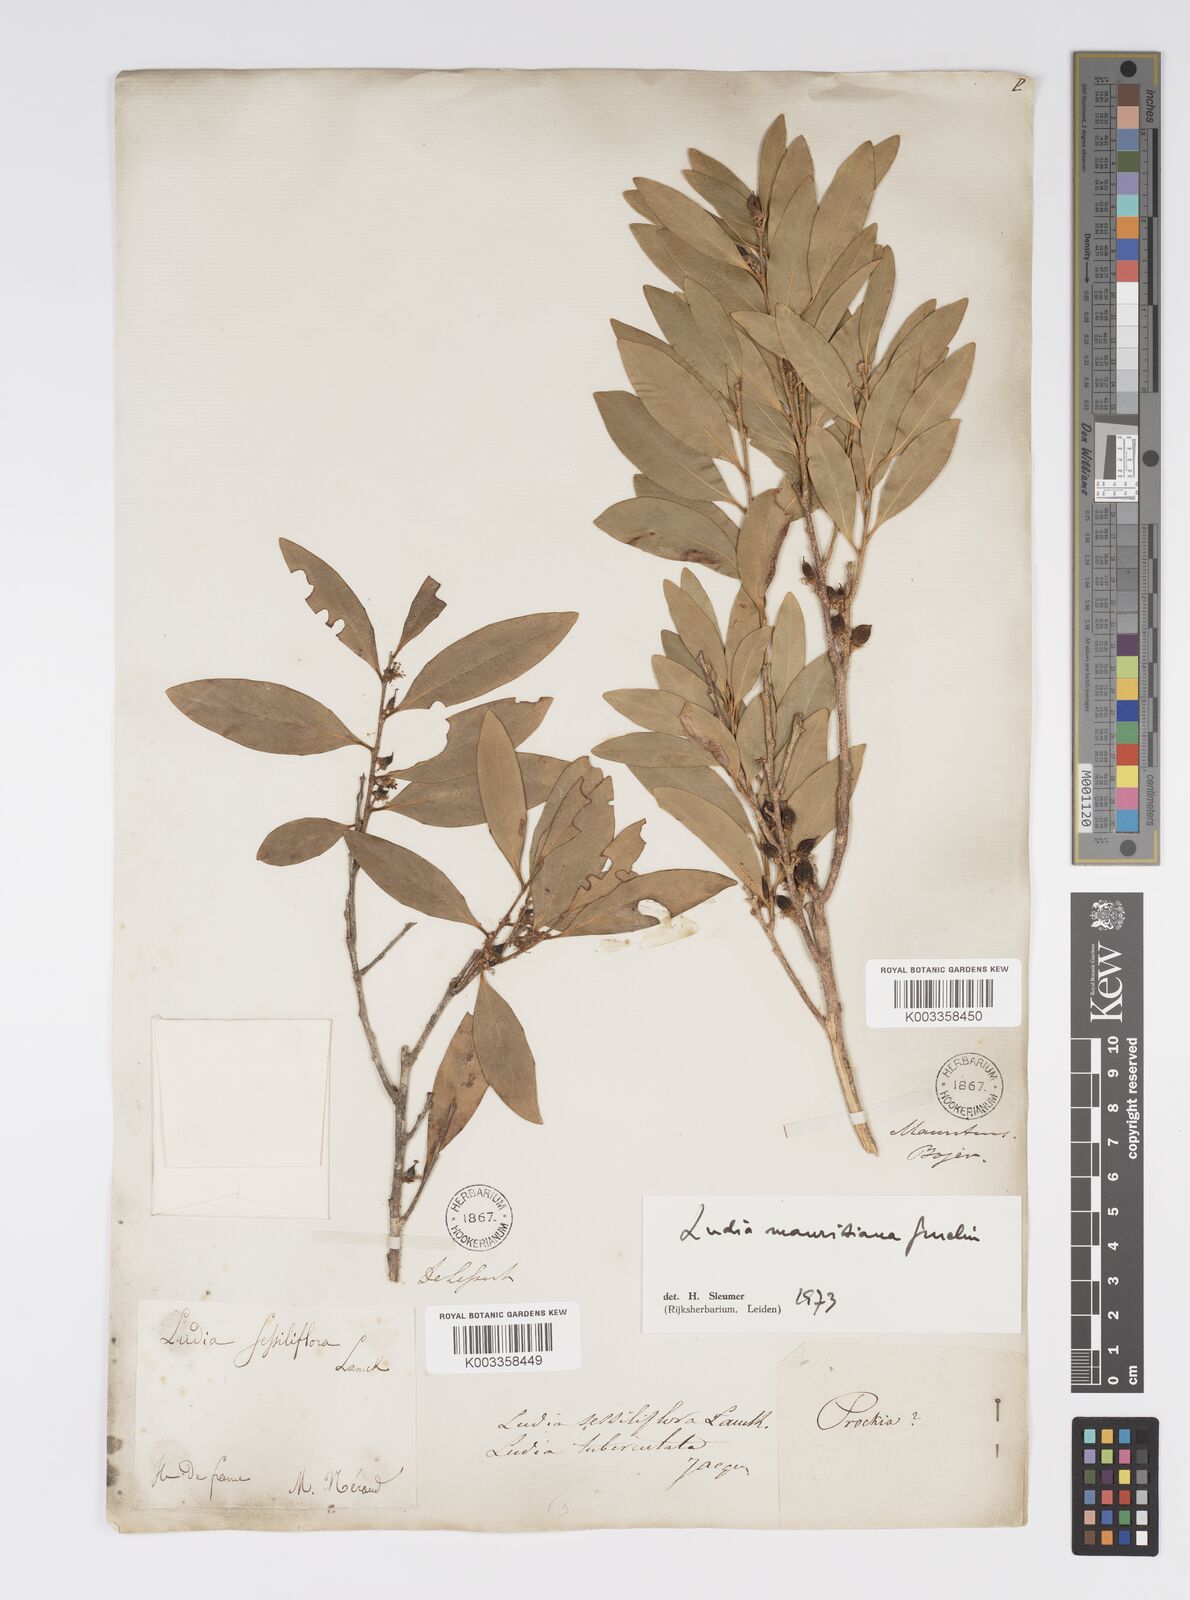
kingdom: Plantae
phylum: Tracheophyta
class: Magnoliopsida
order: Malpighiales
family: Salicaceae
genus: Ludia
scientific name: Ludia mauritiana
